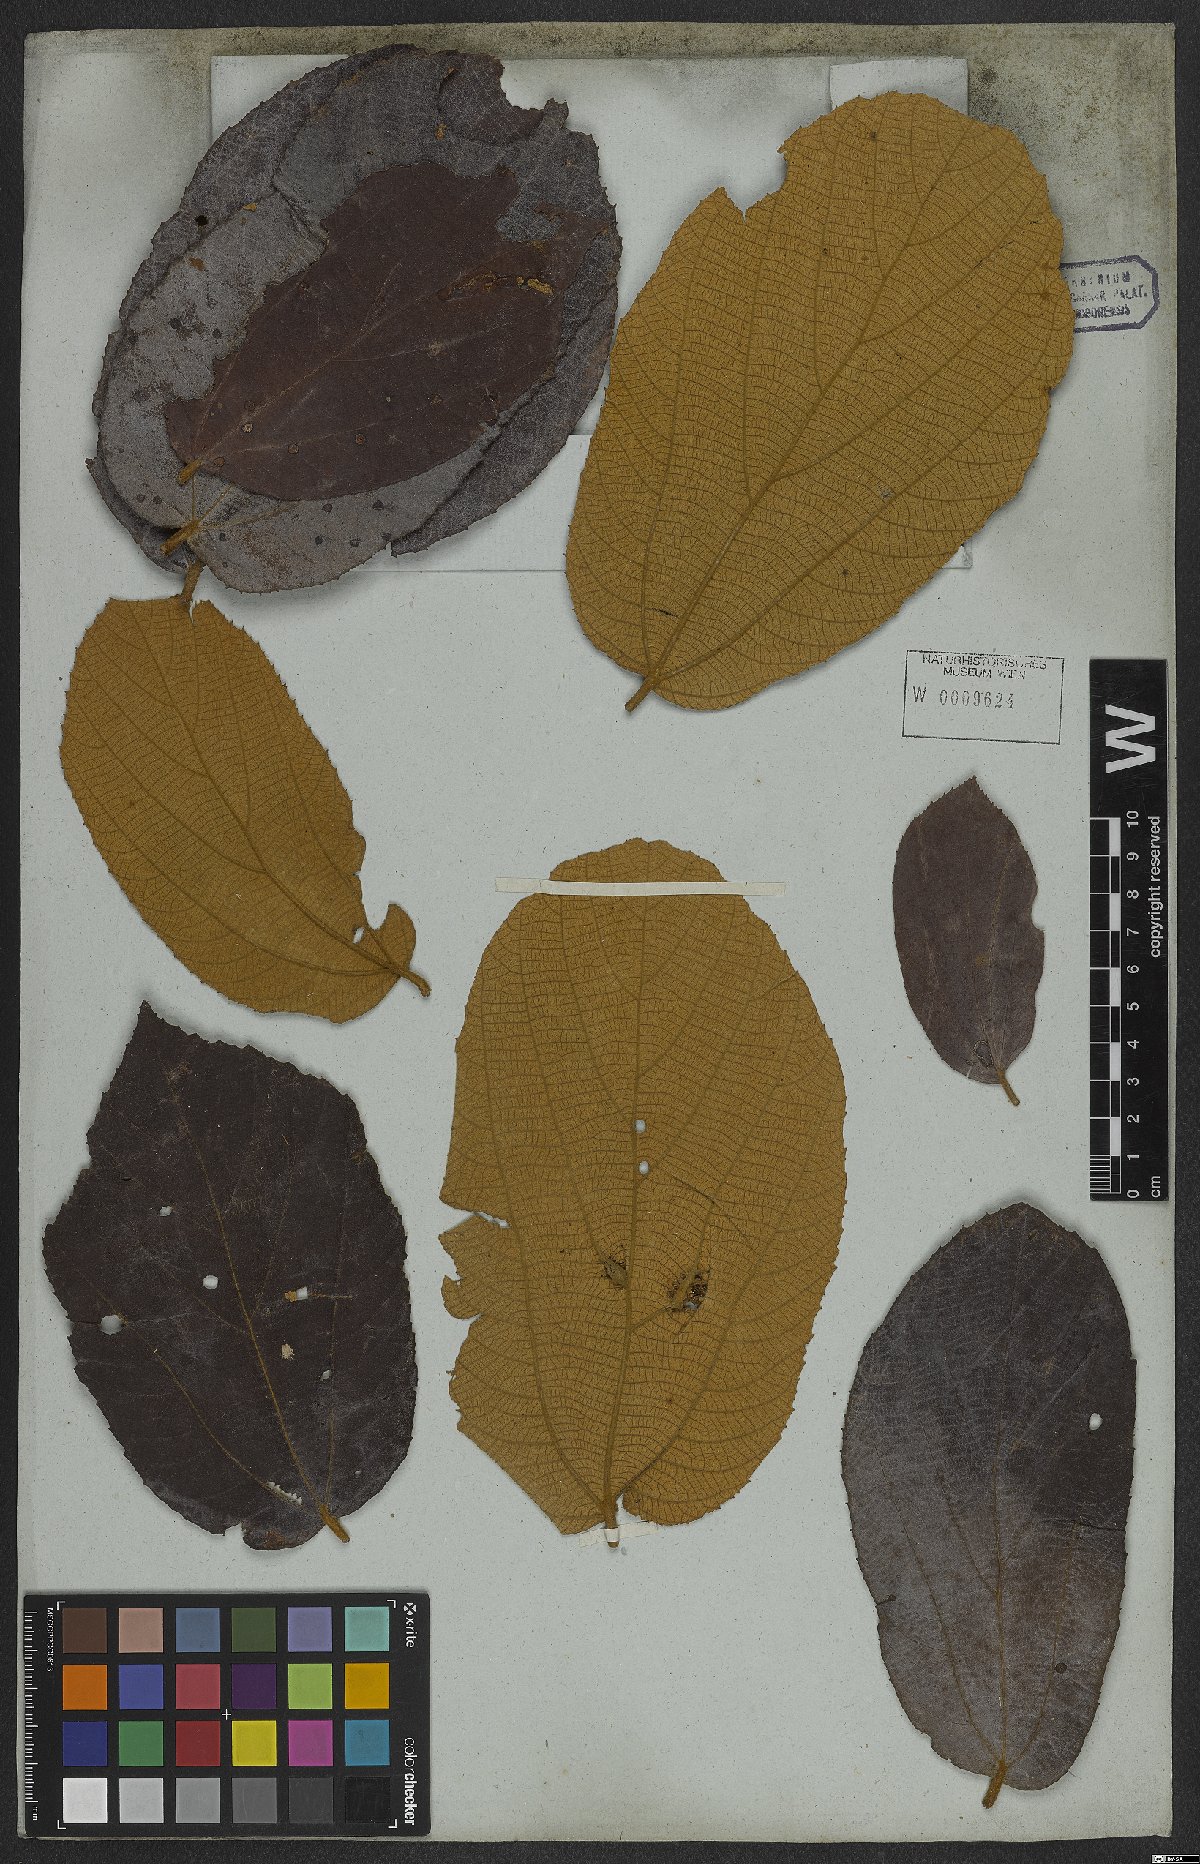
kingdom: Plantae
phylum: Tracheophyta
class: Magnoliopsida
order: Malvales
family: Malvaceae
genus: Luehea
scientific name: Luehea rufescens
